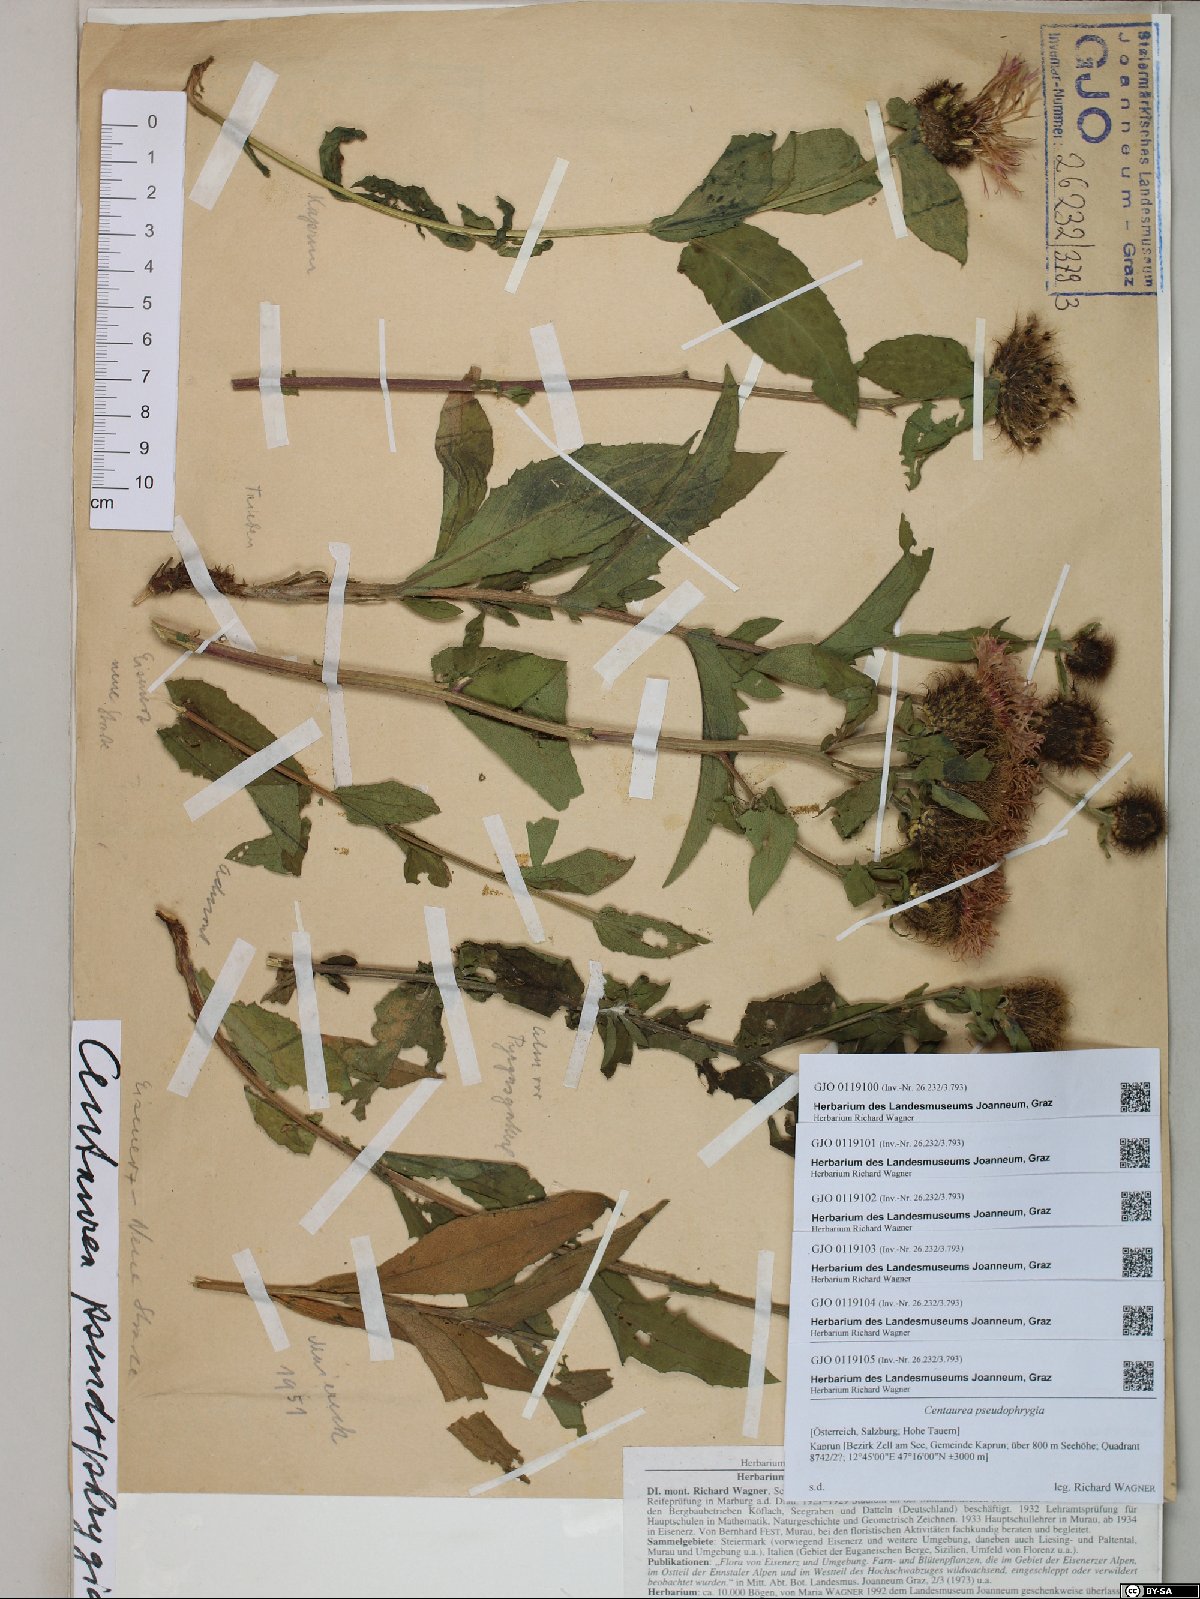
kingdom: Plantae
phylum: Tracheophyta
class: Magnoliopsida
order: Asterales
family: Asteraceae
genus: Centaurea
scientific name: Centaurea pseudophrygia
